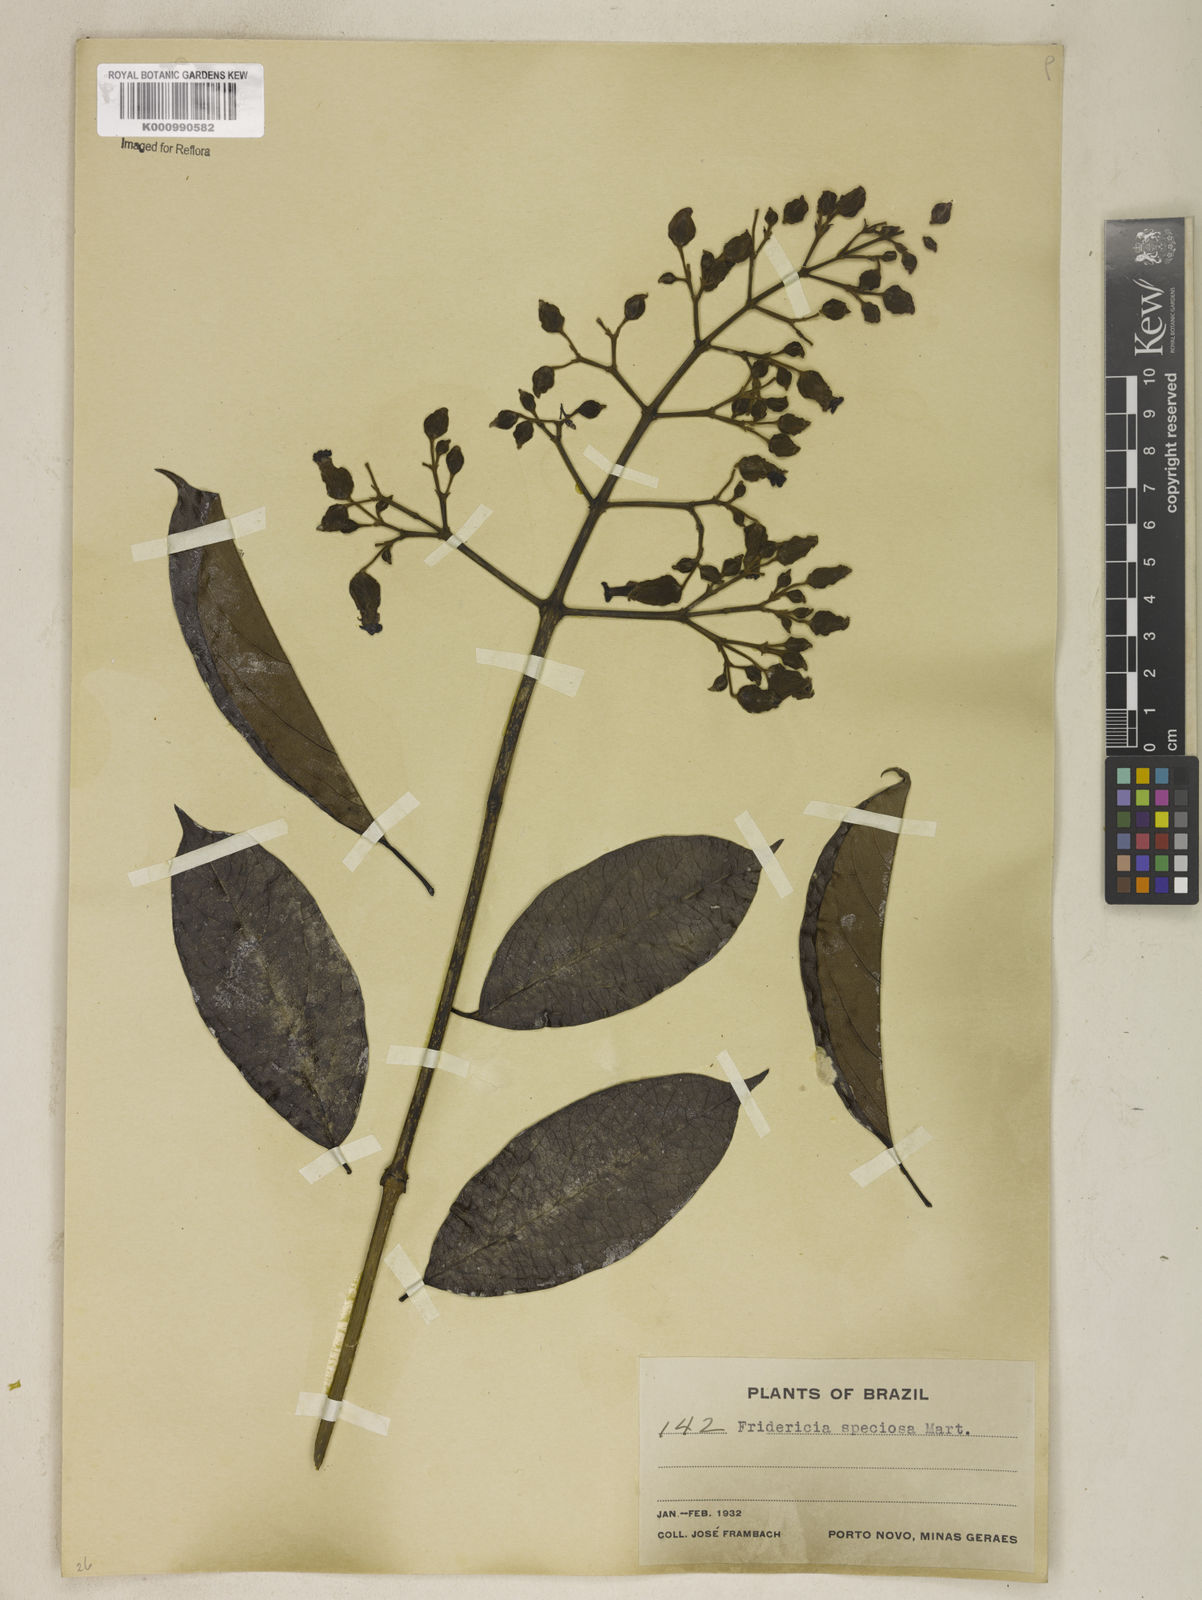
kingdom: Plantae
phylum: Tracheophyta
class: Magnoliopsida
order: Lamiales
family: Bignoniaceae
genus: Fridericia
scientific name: Fridericia speciosa
